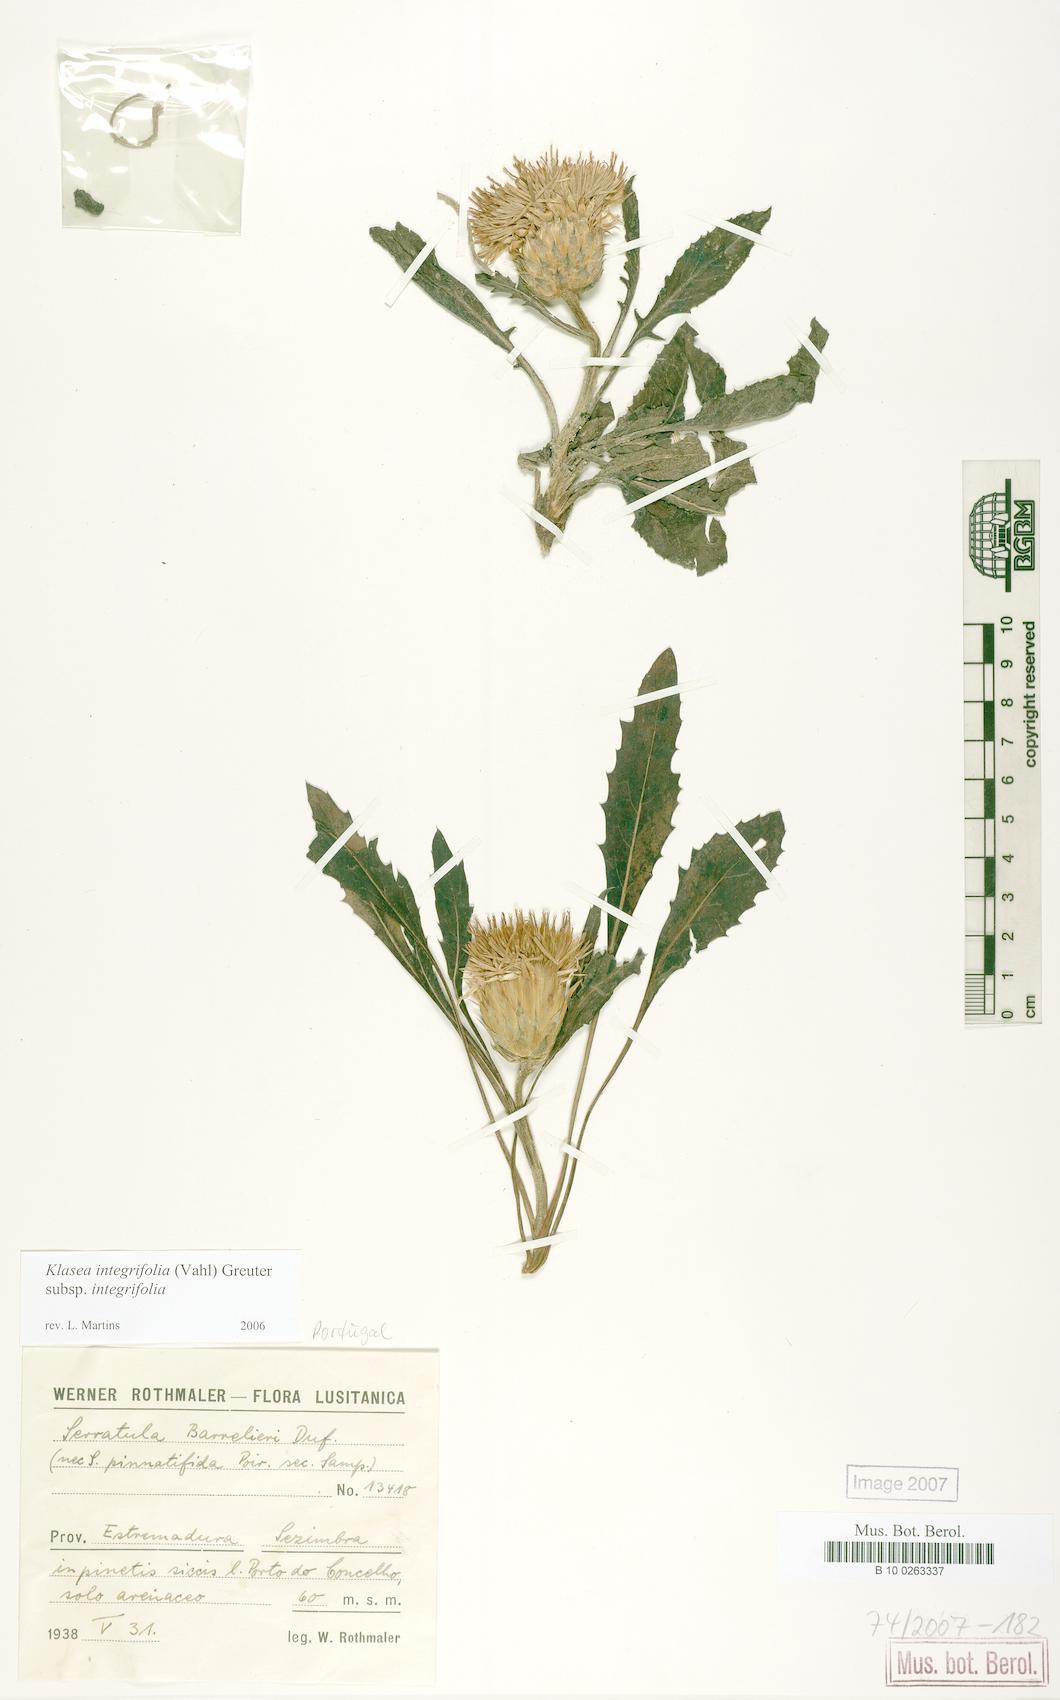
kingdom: Plantae
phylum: Tracheophyta
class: Magnoliopsida
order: Asterales
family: Asteraceae
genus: Klasea
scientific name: Klasea integrifolia
